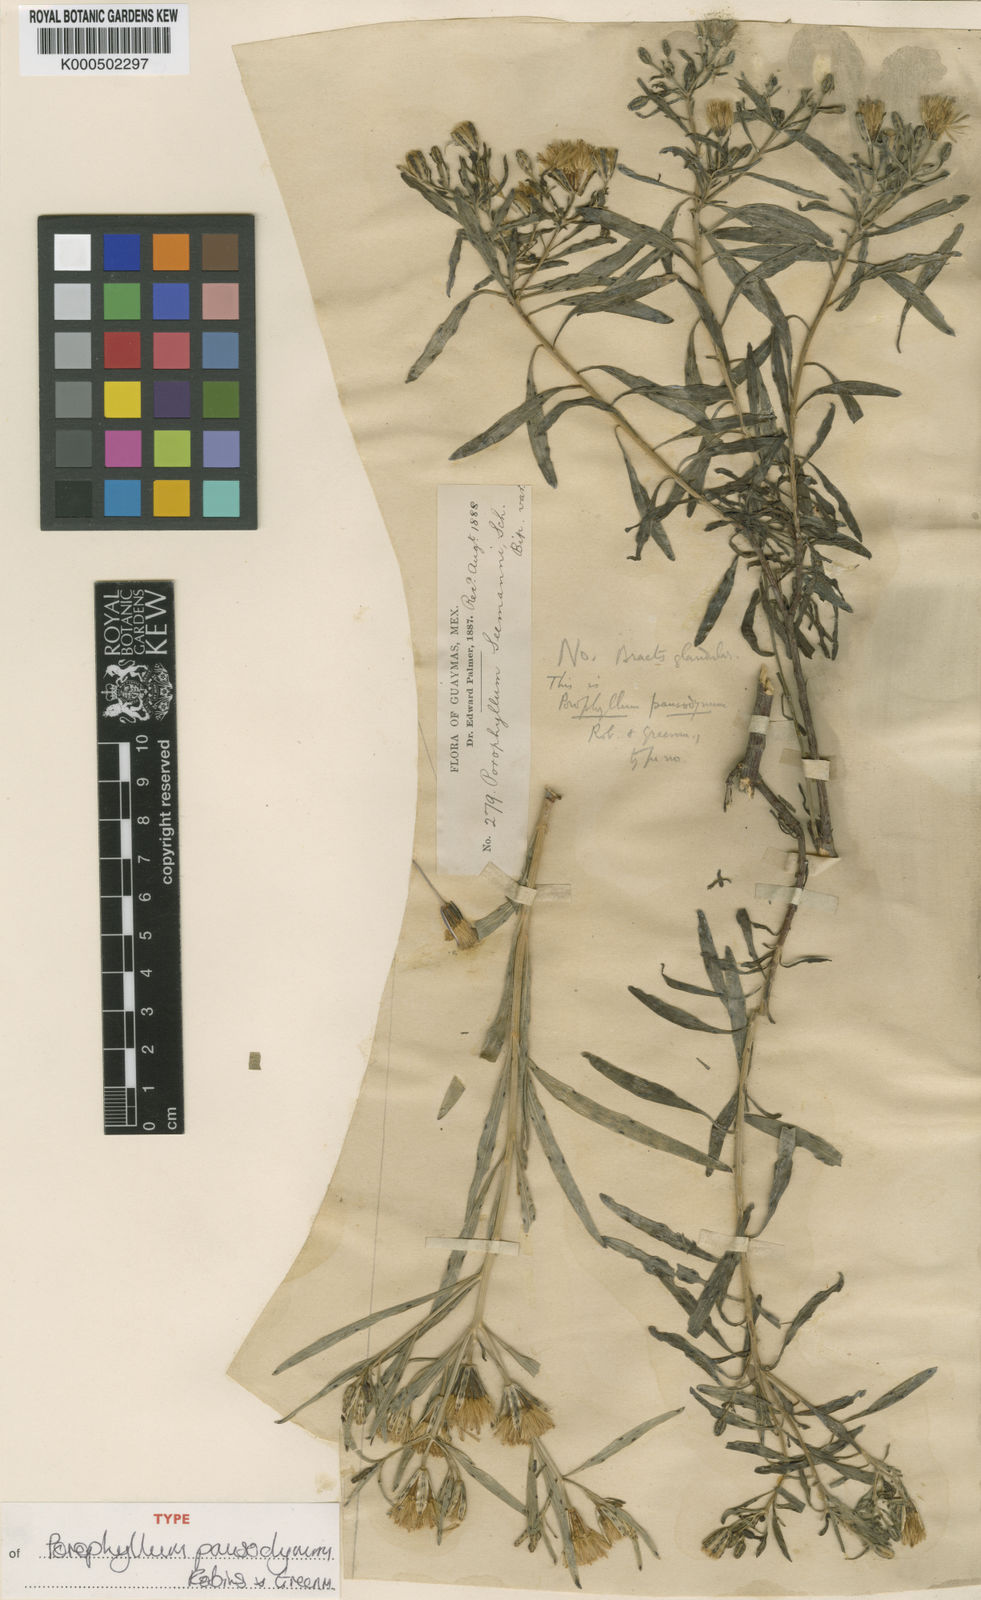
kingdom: Plantae
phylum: Tracheophyta
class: Magnoliopsida
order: Asterales
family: Asteraceae
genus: Porophyllum
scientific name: Porophyllum pausodynum
